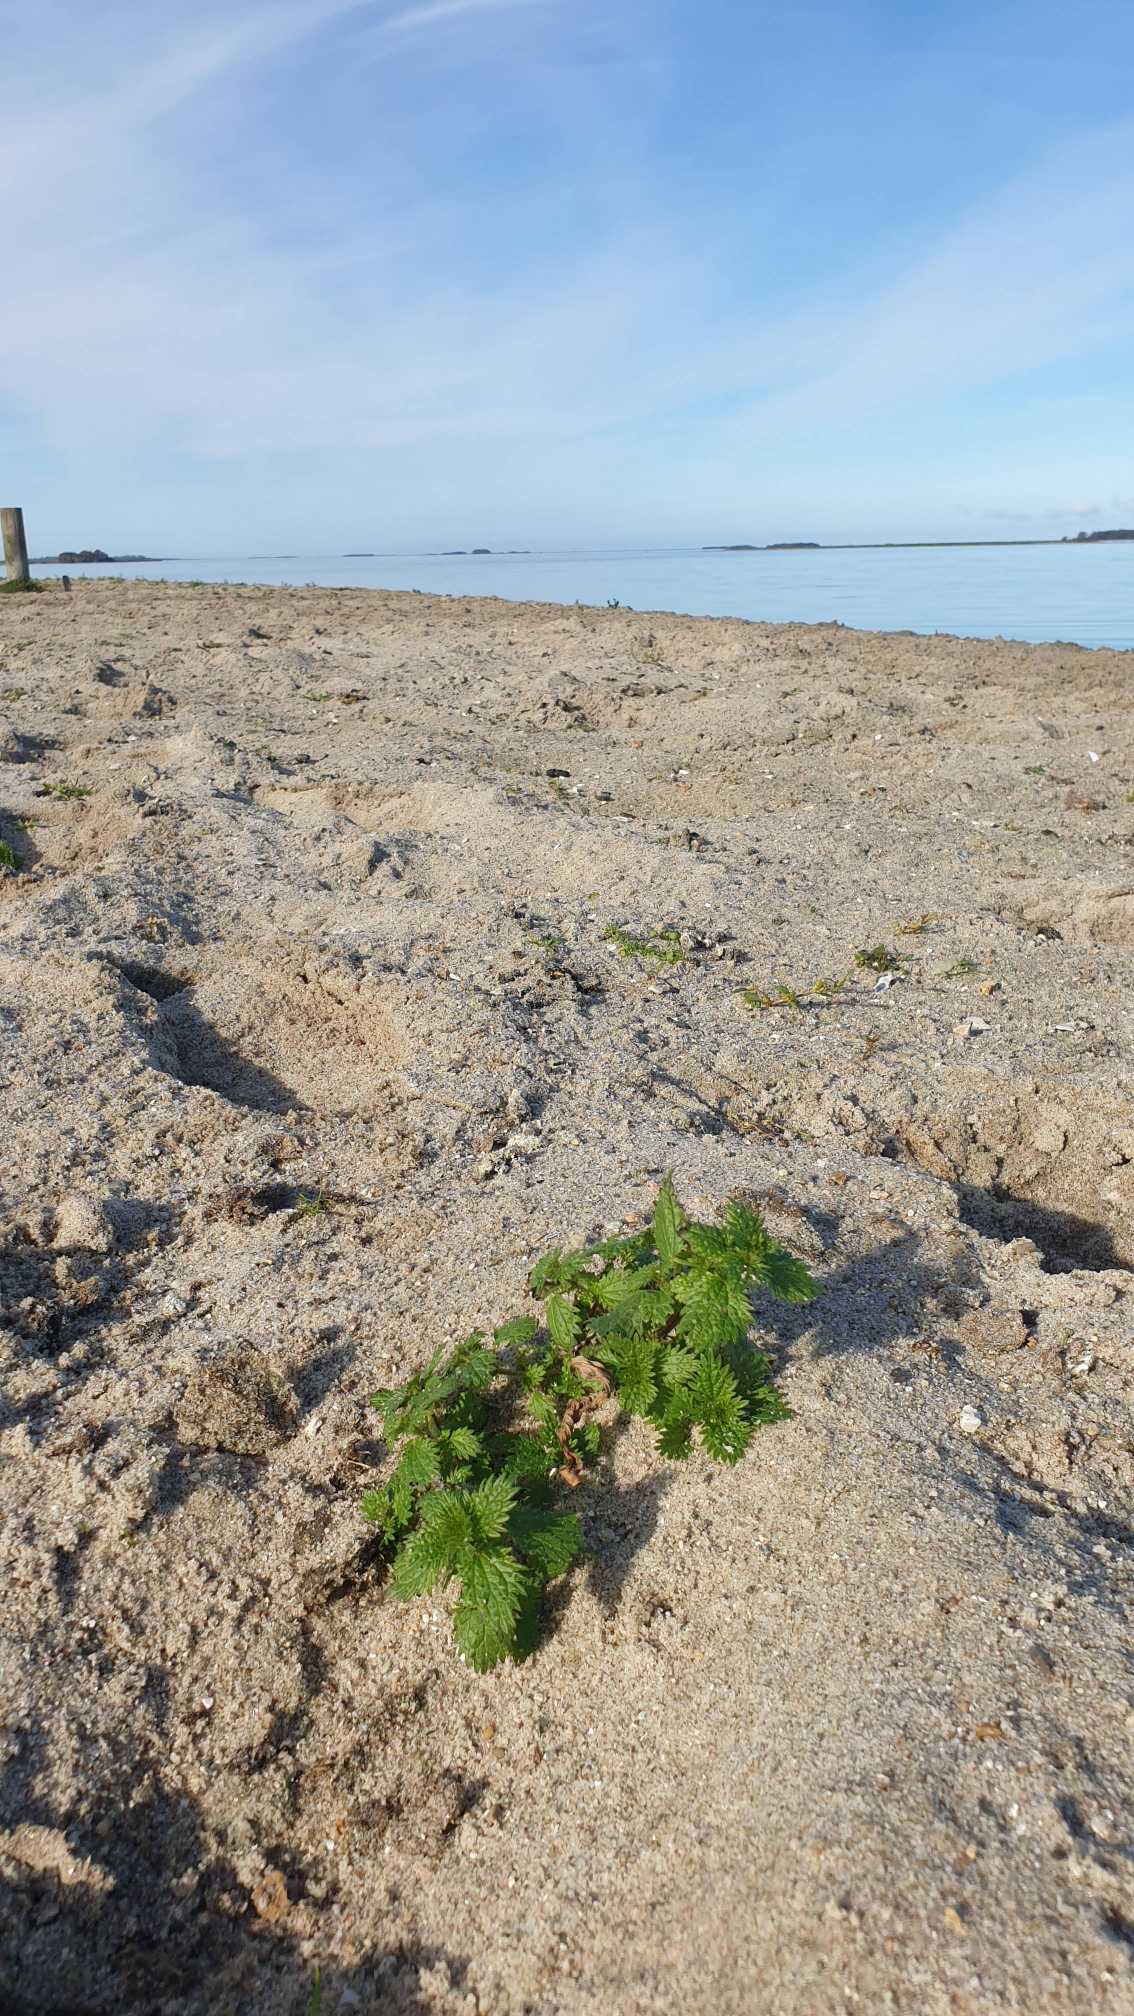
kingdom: Plantae
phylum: Tracheophyta
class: Magnoliopsida
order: Rosales
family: Urticaceae
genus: Urtica
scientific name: Urtica urens
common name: Liden nælde
